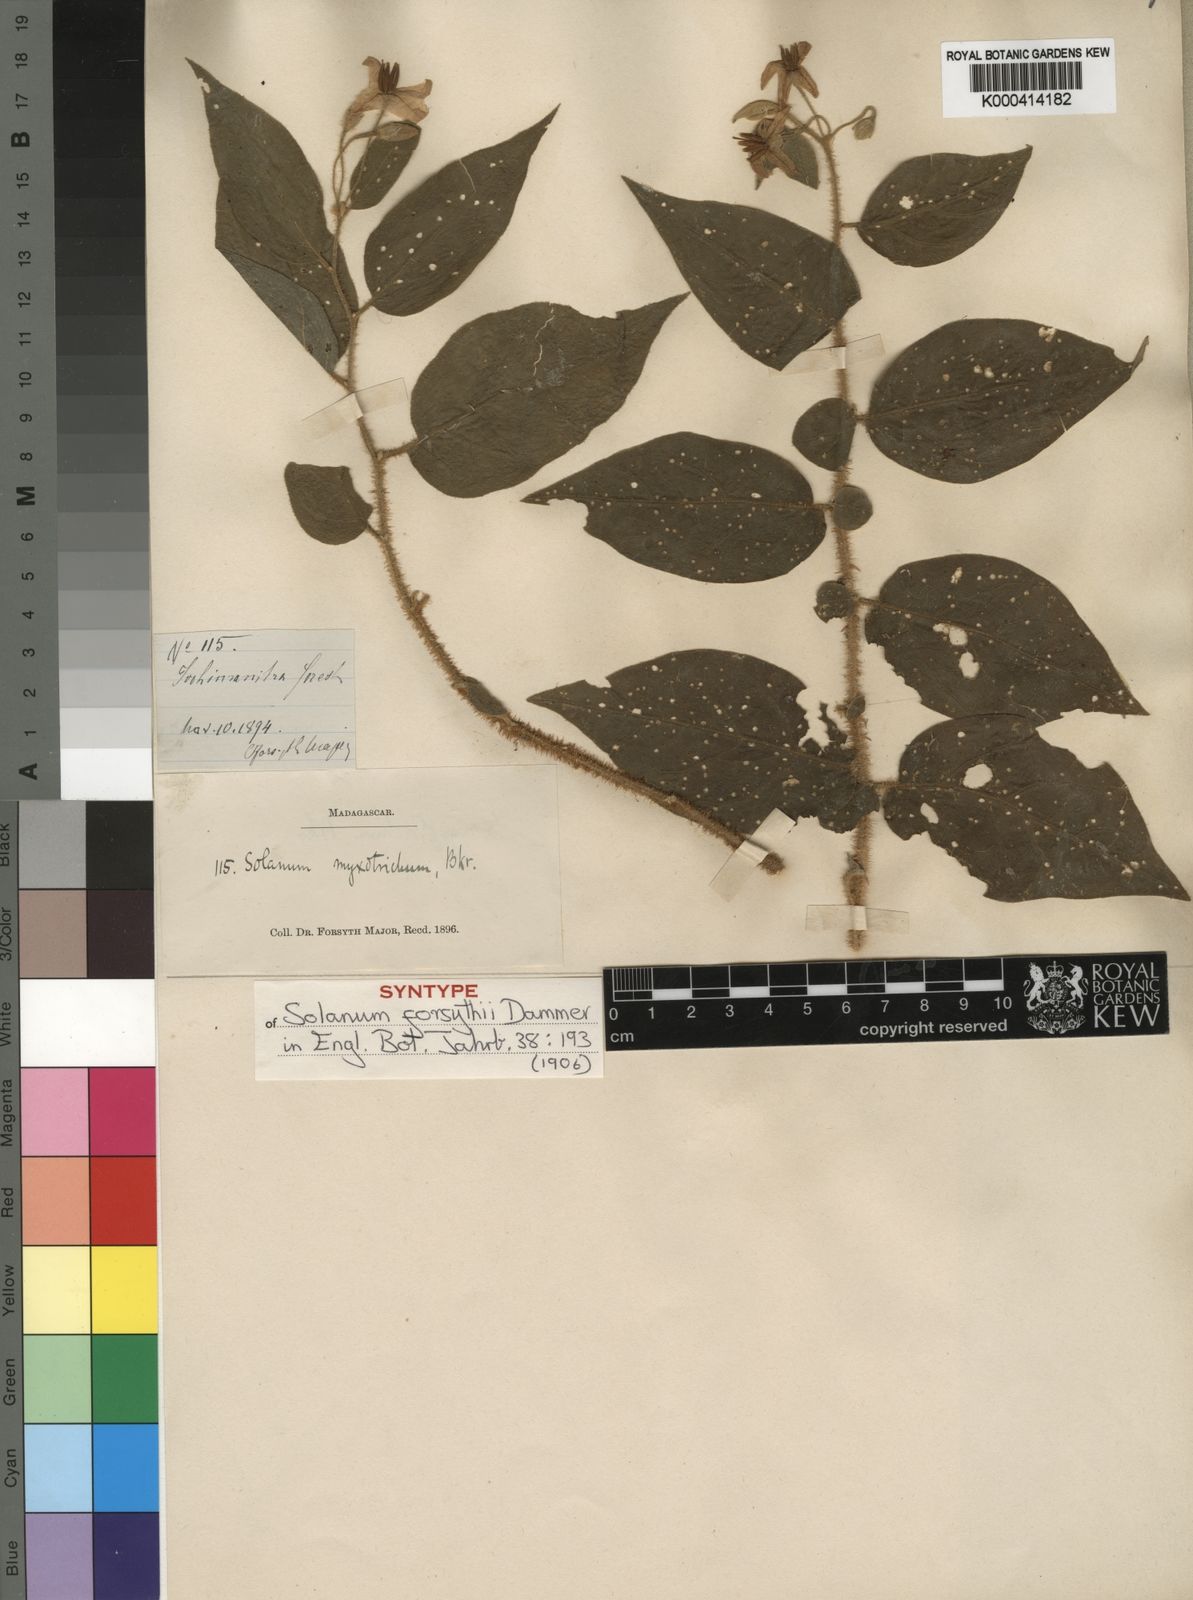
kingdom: Plantae
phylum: Tracheophyta
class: Magnoliopsida
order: Solanales
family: Solanaceae
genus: Solanum
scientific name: Solanum myoxotrichum
